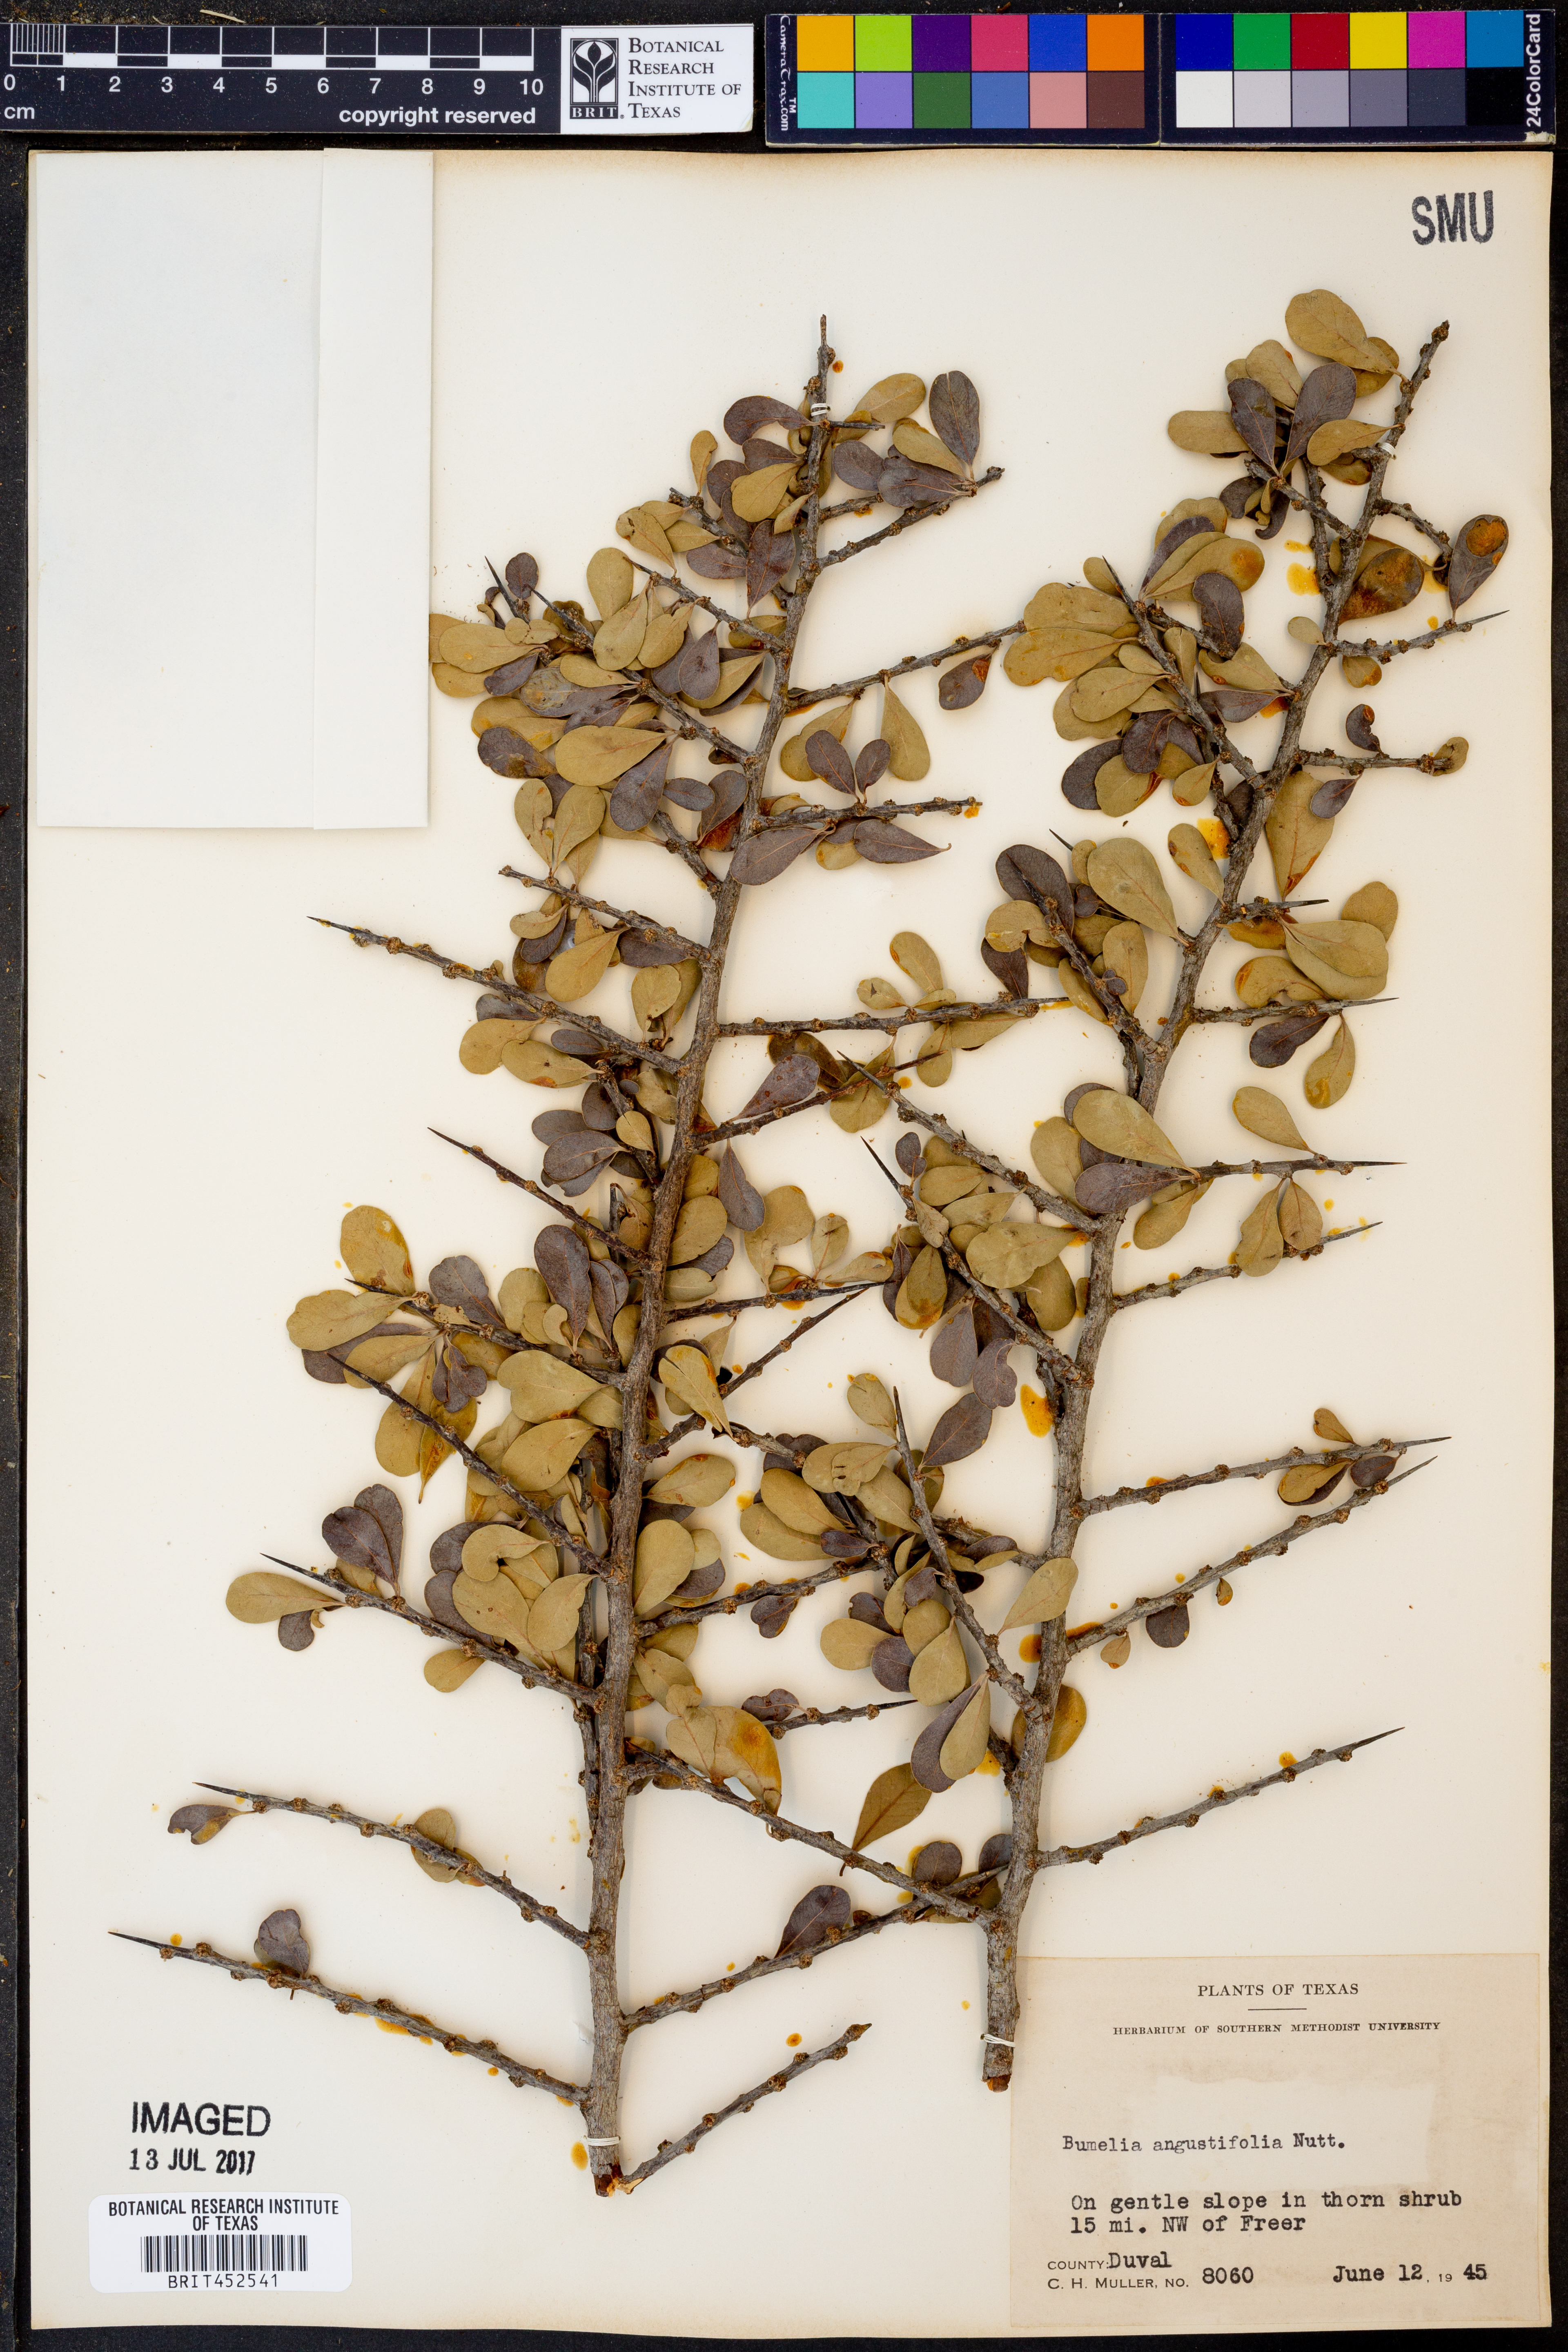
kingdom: Plantae
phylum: Tracheophyta
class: Magnoliopsida
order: Ericales
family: Sapotaceae
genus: Sideroxylon
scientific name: Sideroxylon celastrinum
